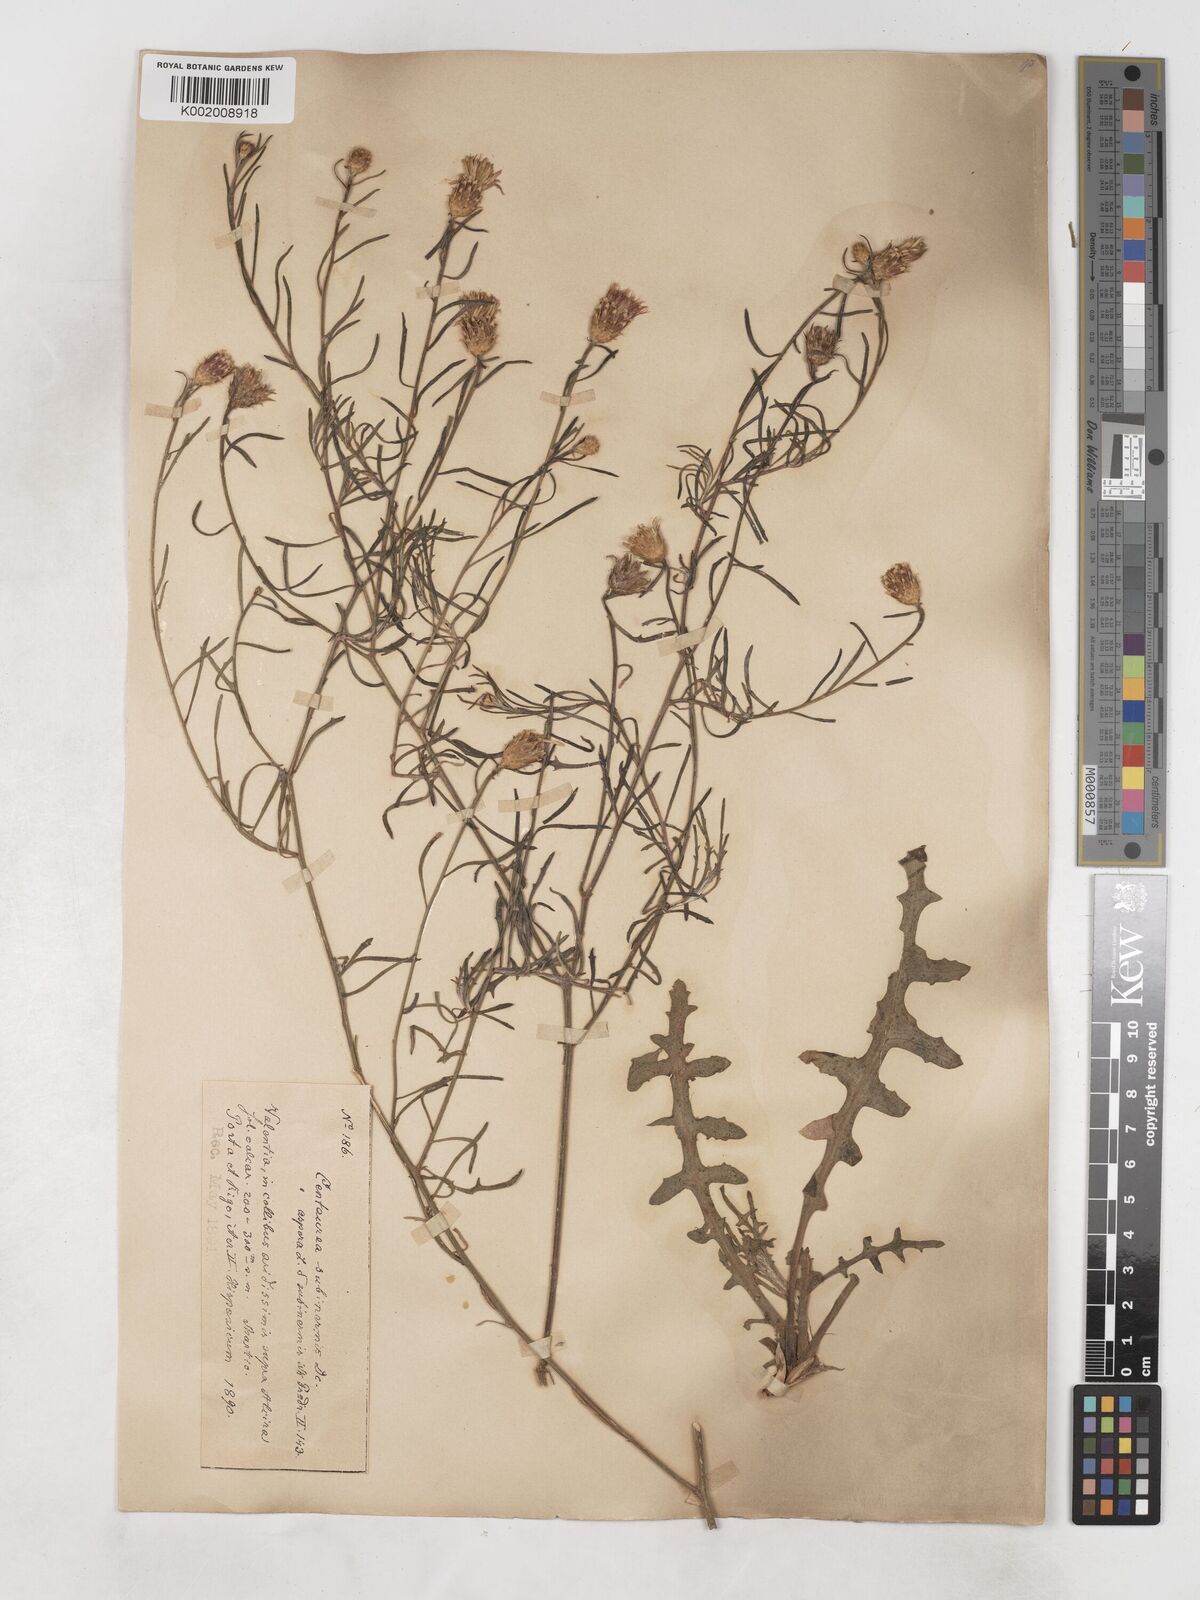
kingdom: Plantae
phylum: Tracheophyta
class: Magnoliopsida
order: Asterales
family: Asteraceae
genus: Centaurea
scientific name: Centaurea aspera
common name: Rough star-thistle
